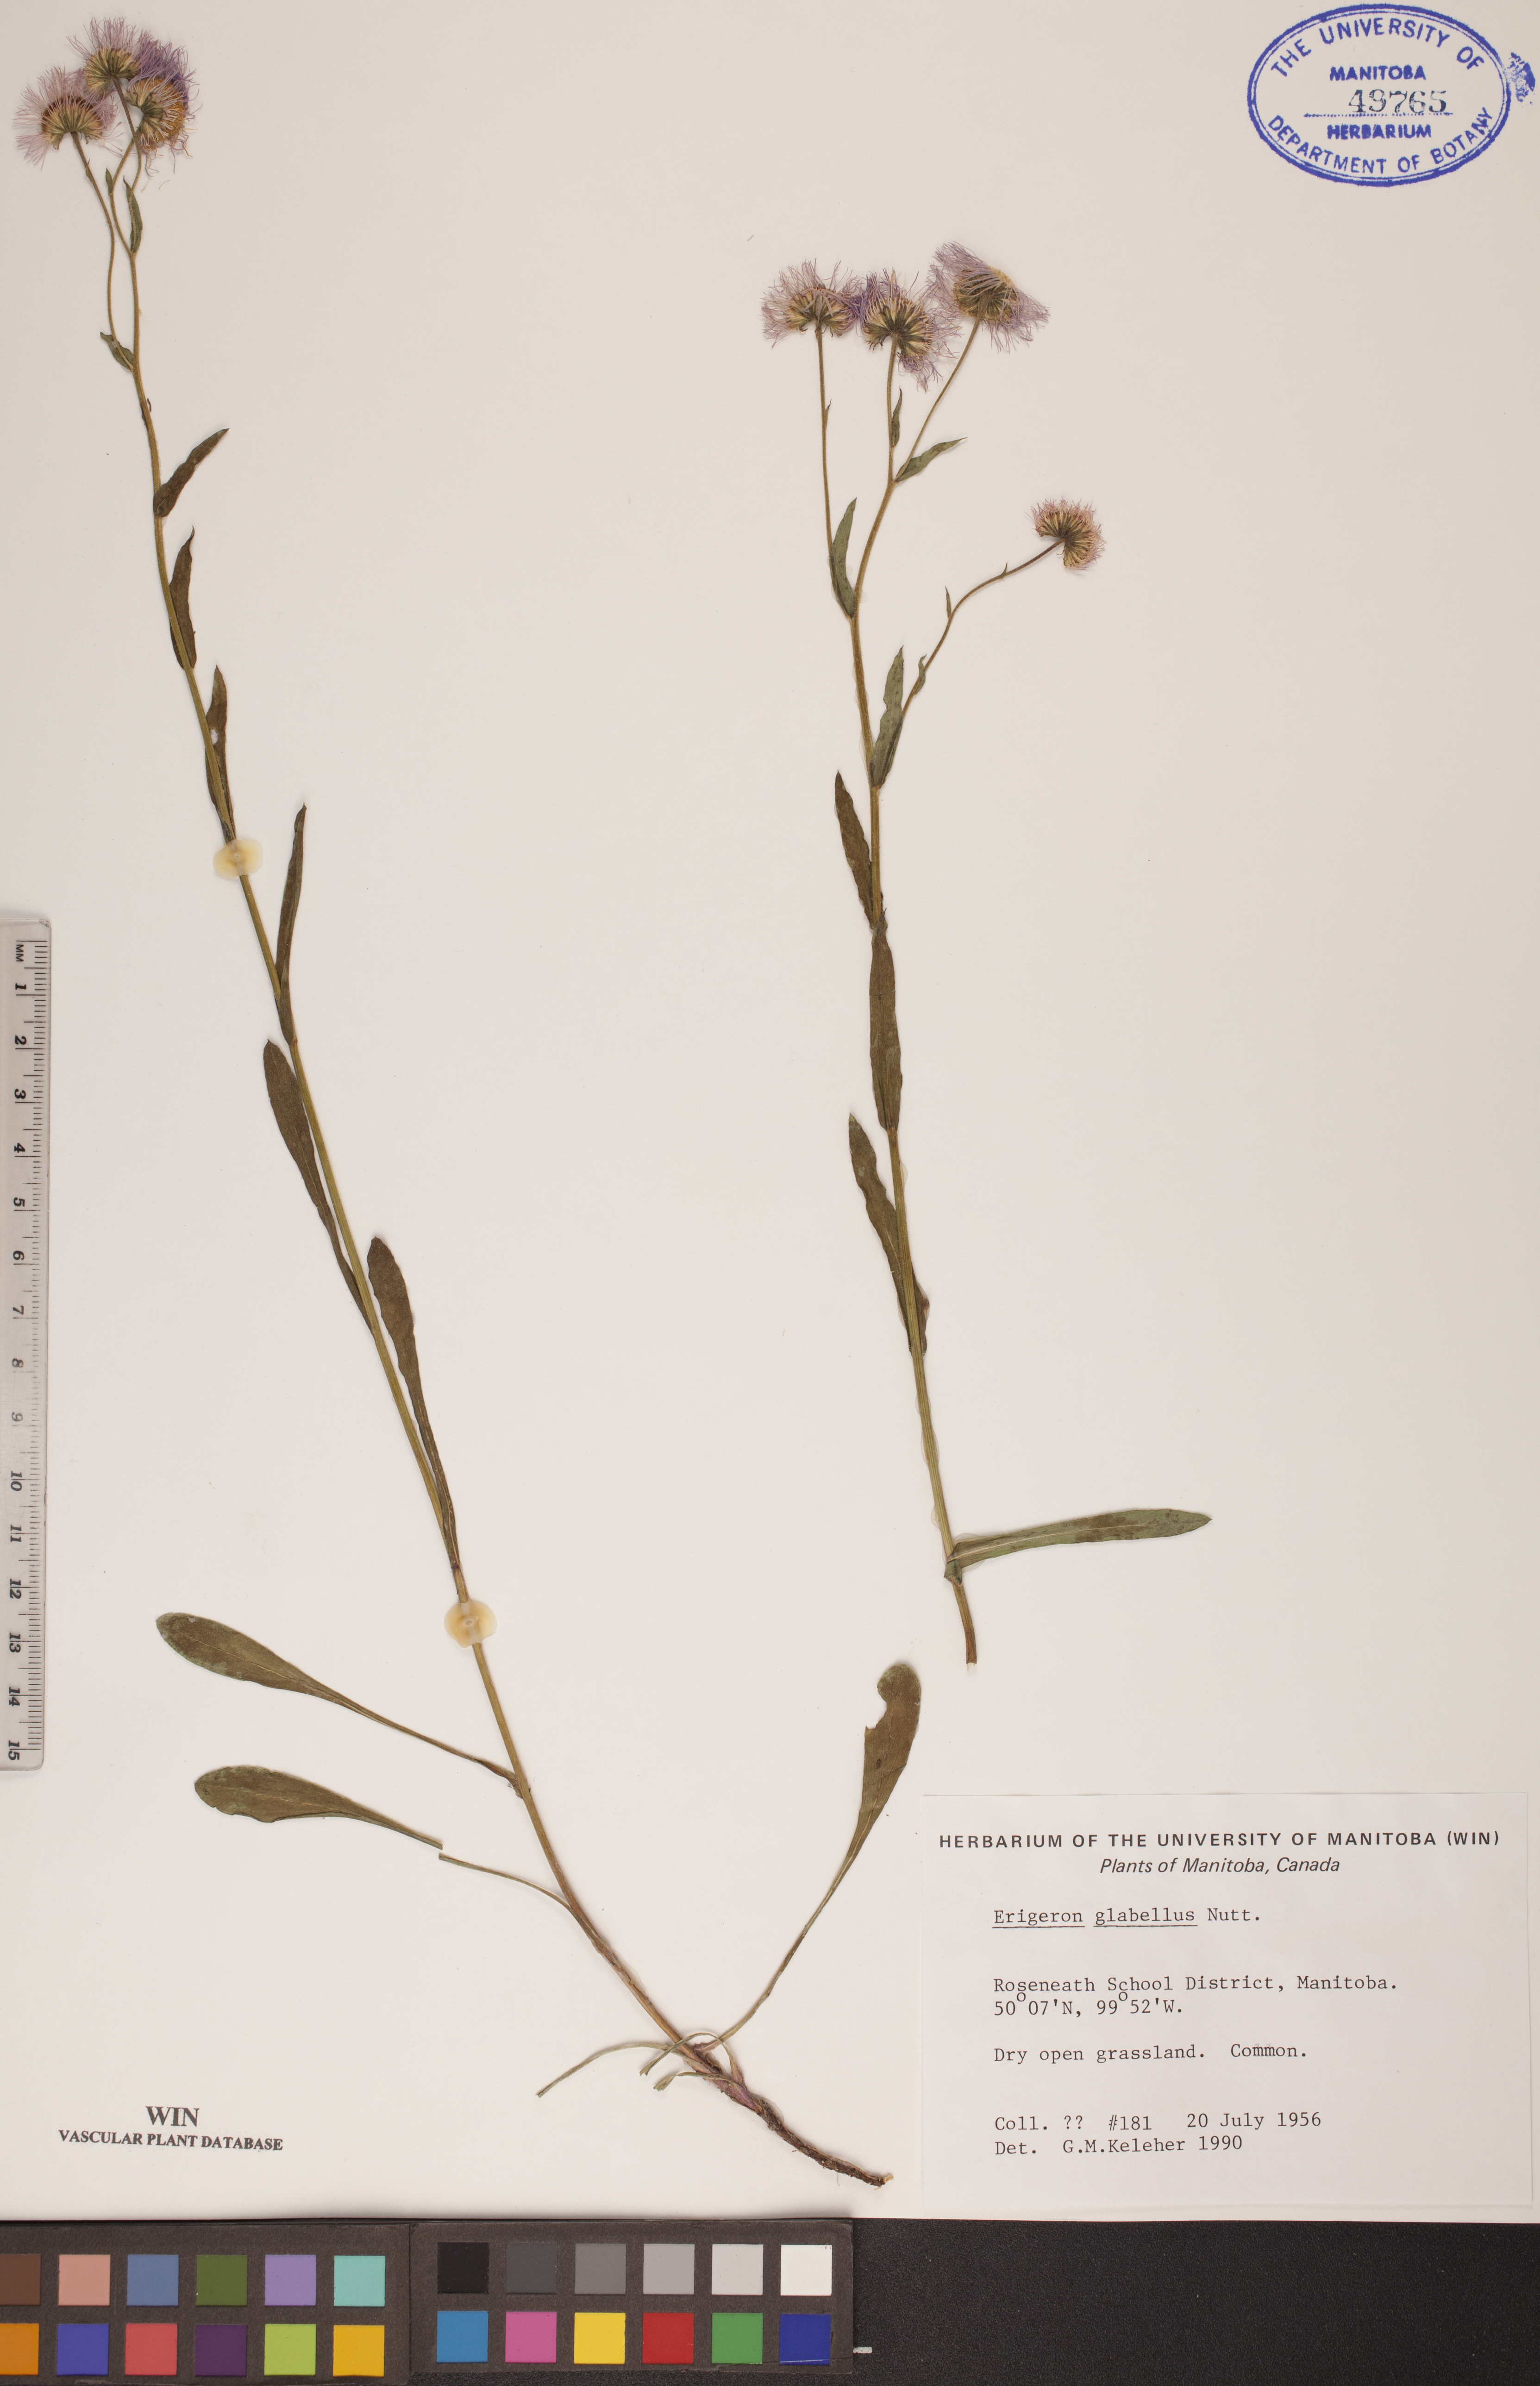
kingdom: Plantae
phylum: Tracheophyta
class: Magnoliopsida
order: Asterales
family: Asteraceae
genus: Erigeron
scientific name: Erigeron glabellus
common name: Smooth fleabane
